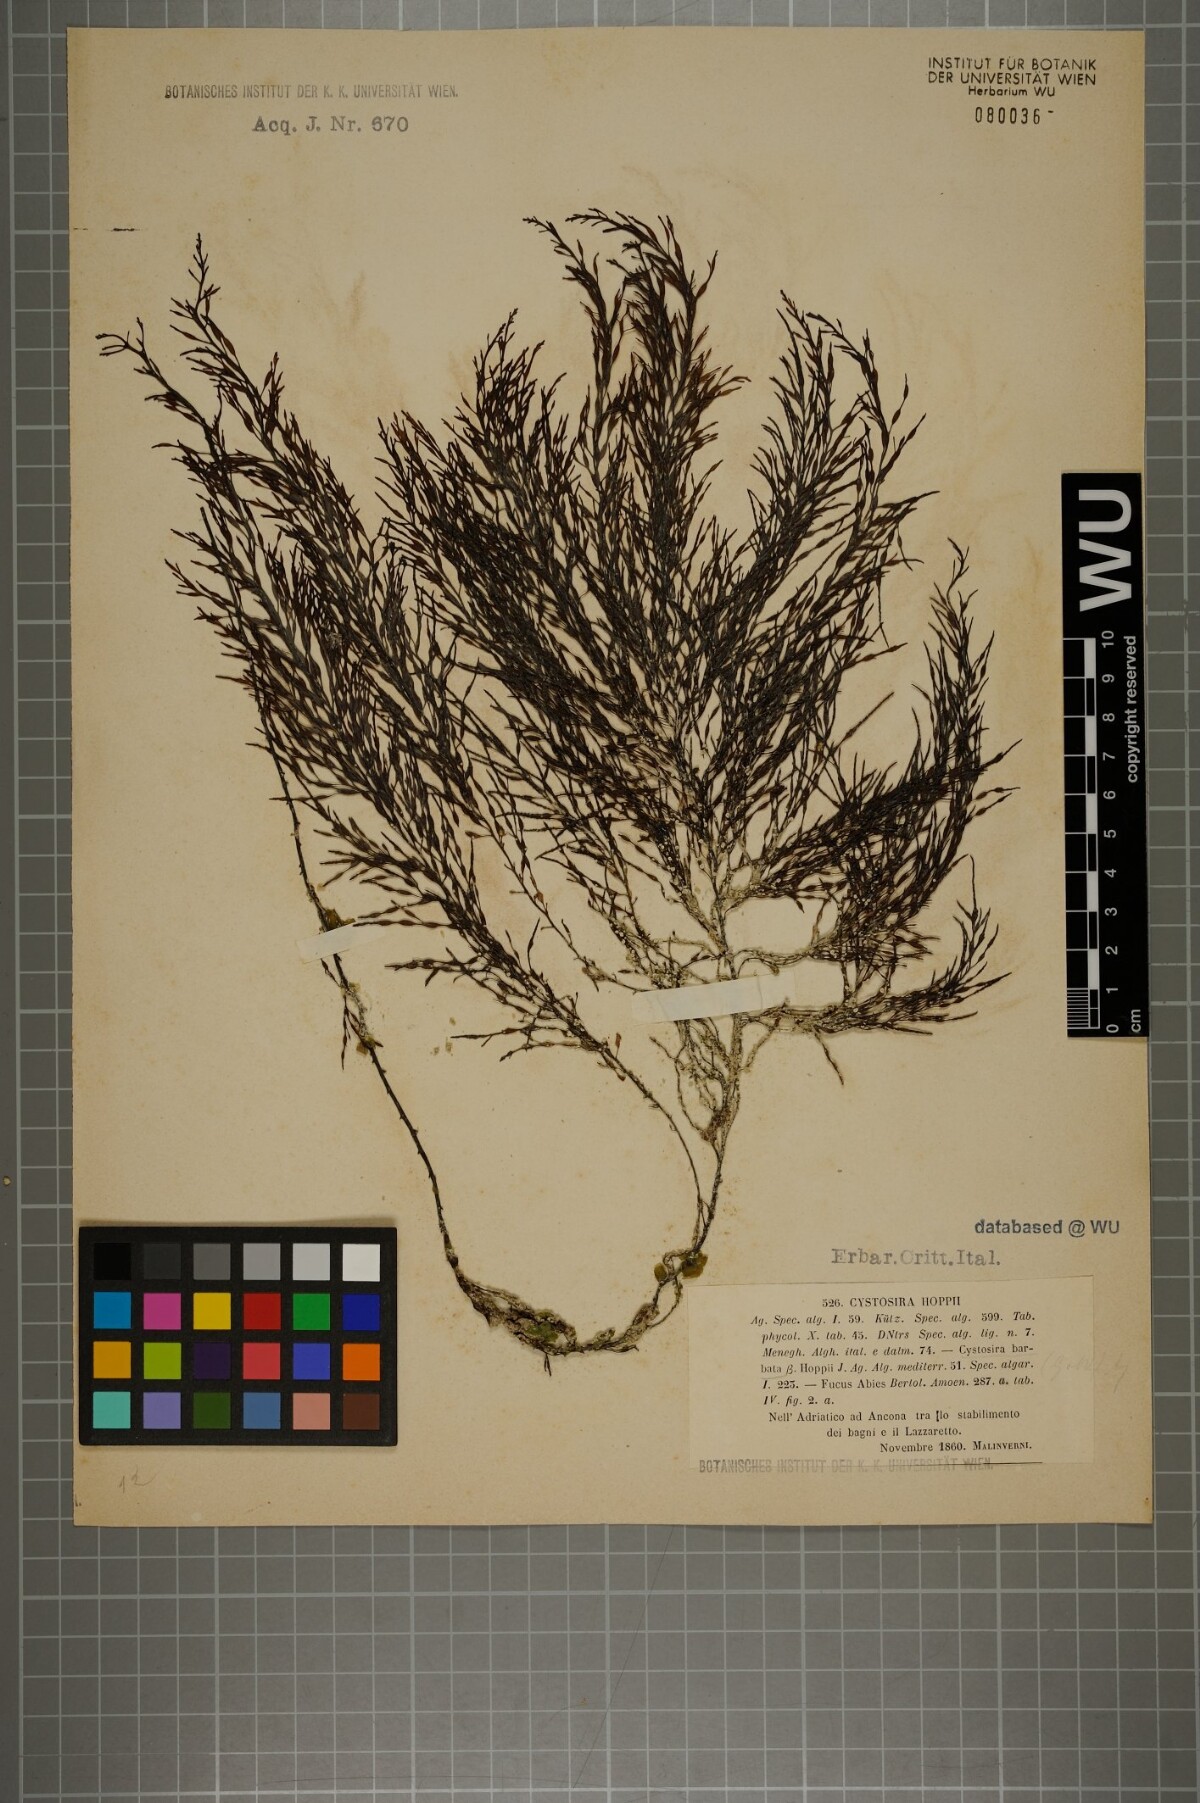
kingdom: Chromista
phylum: Ochrophyta
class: Phaeophyceae
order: Fucales
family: Sargassaceae
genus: Cystoseira
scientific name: Cystoseira Gongolaria barbata
